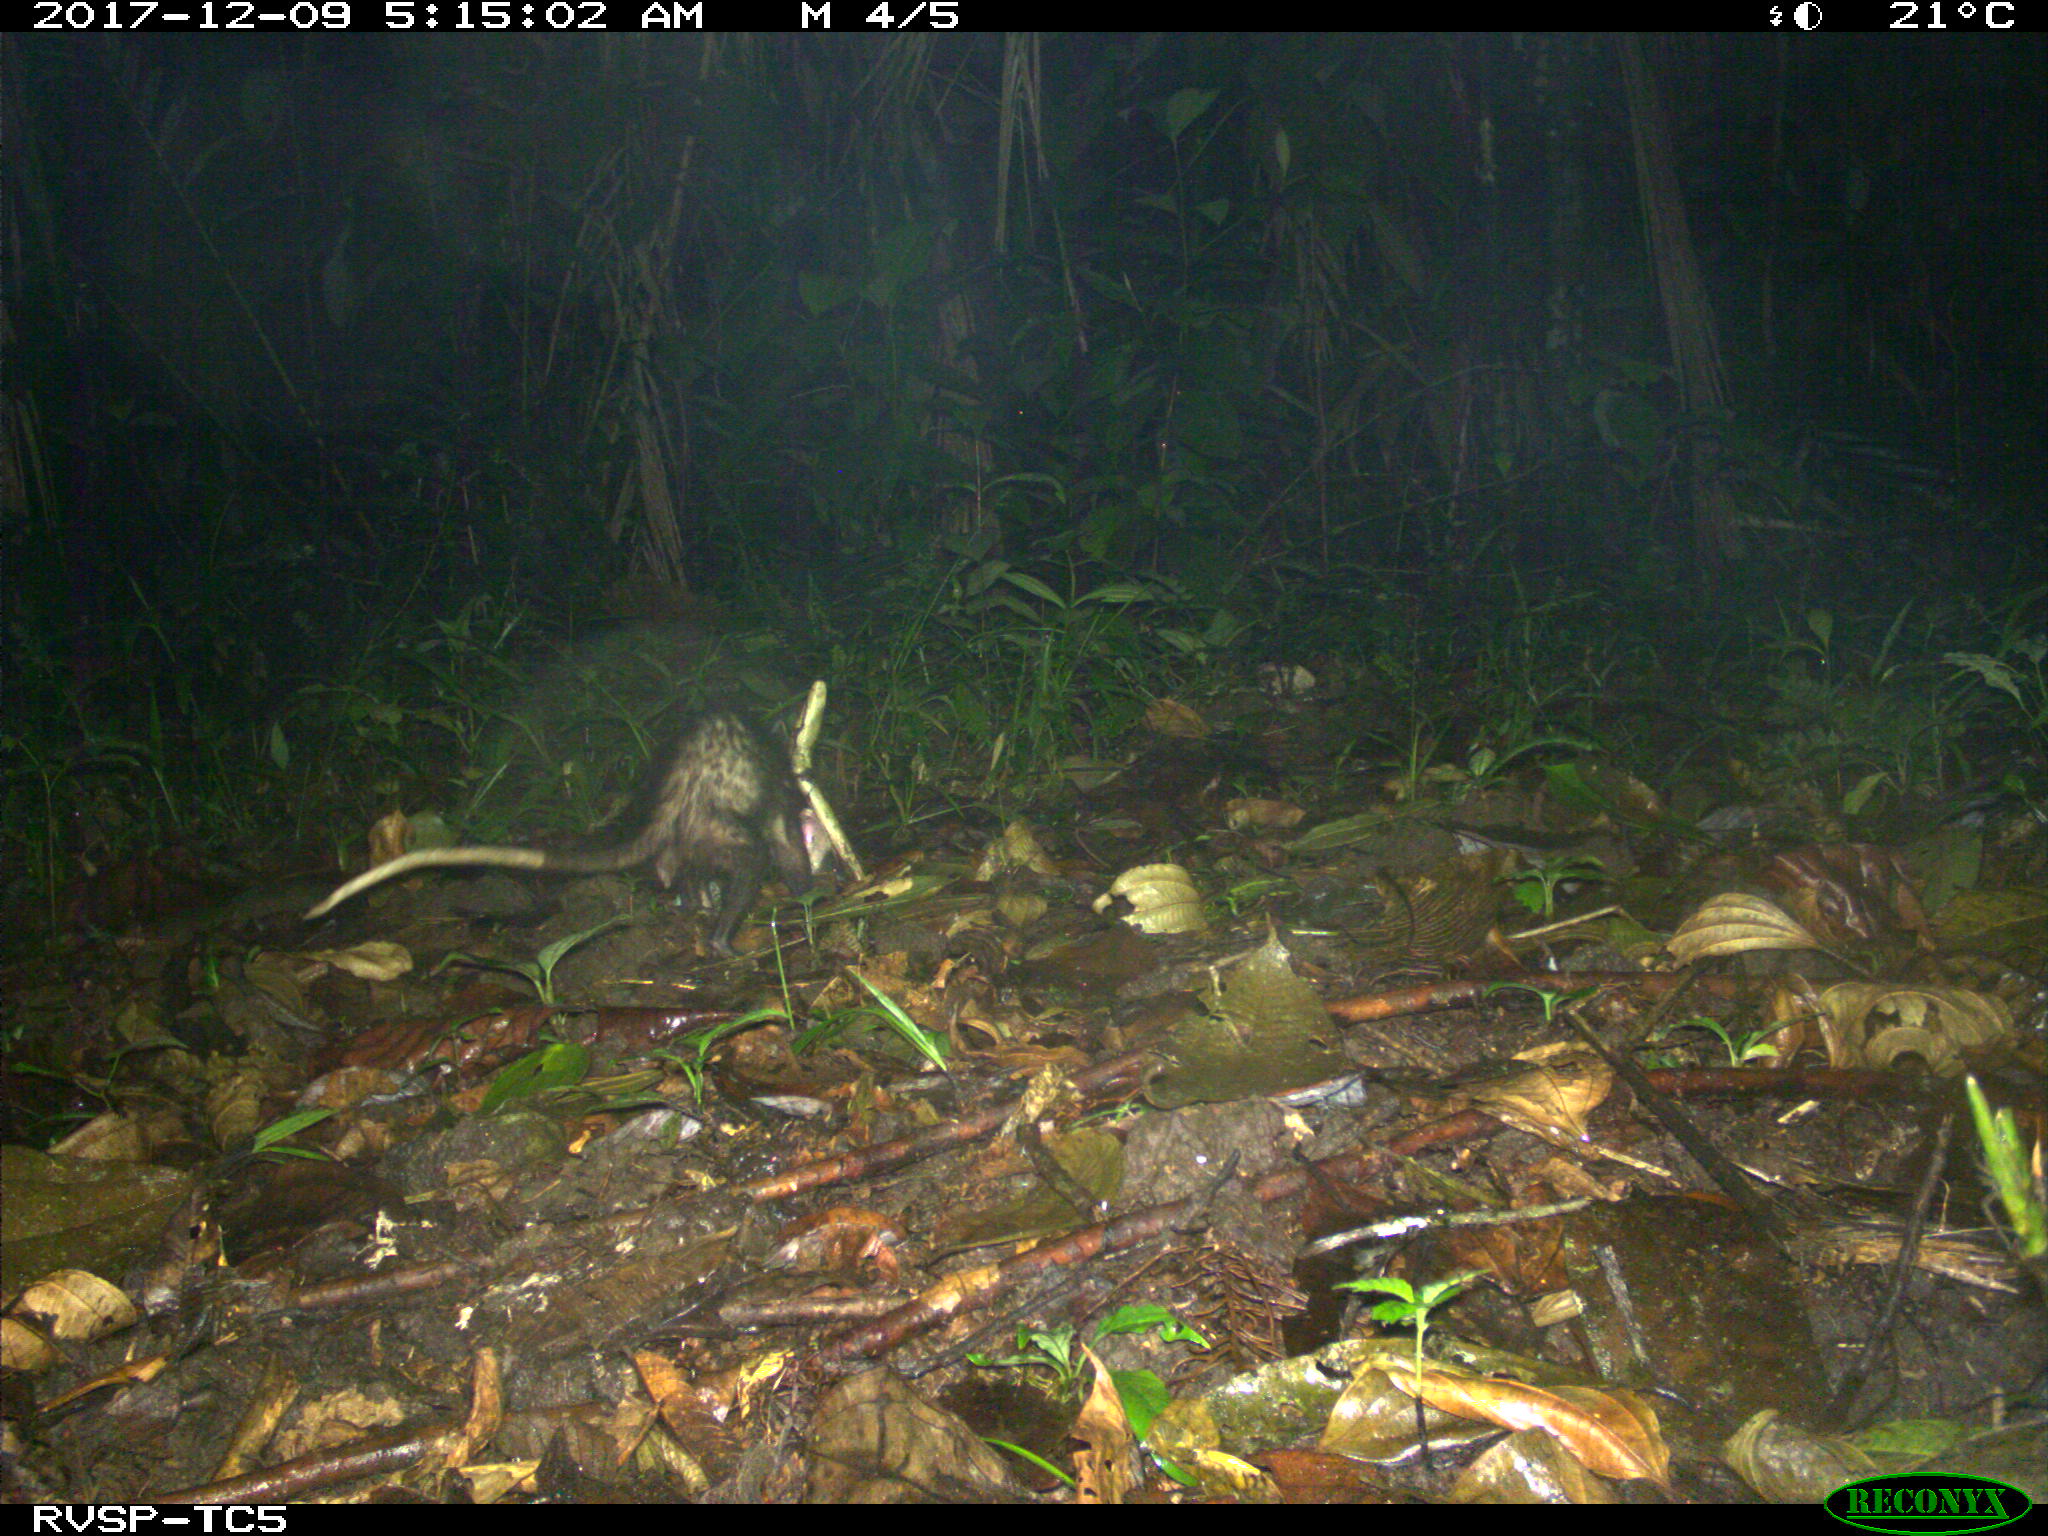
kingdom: Animalia
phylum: Chordata
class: Mammalia
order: Didelphimorphia
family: Didelphidae
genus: Didelphis
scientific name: Didelphis marsupialis
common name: Common opossum
